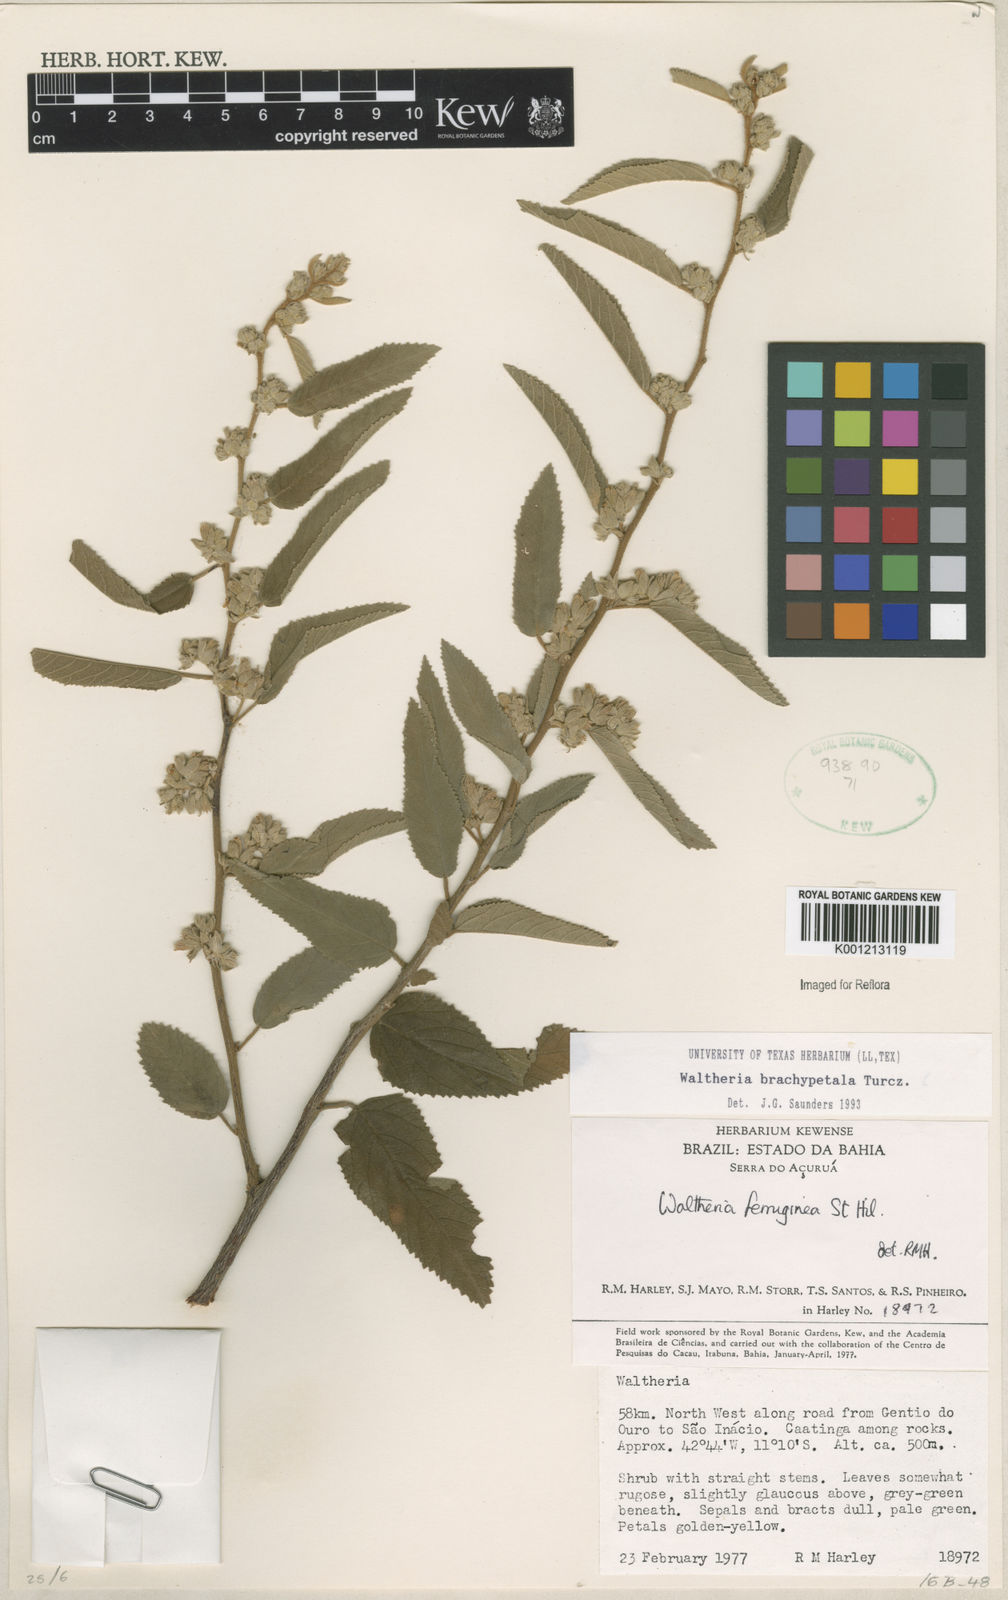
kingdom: Plantae
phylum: Tracheophyta
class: Magnoliopsida
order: Malvales
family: Malvaceae
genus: Waltheria
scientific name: Waltheria ferruginea
